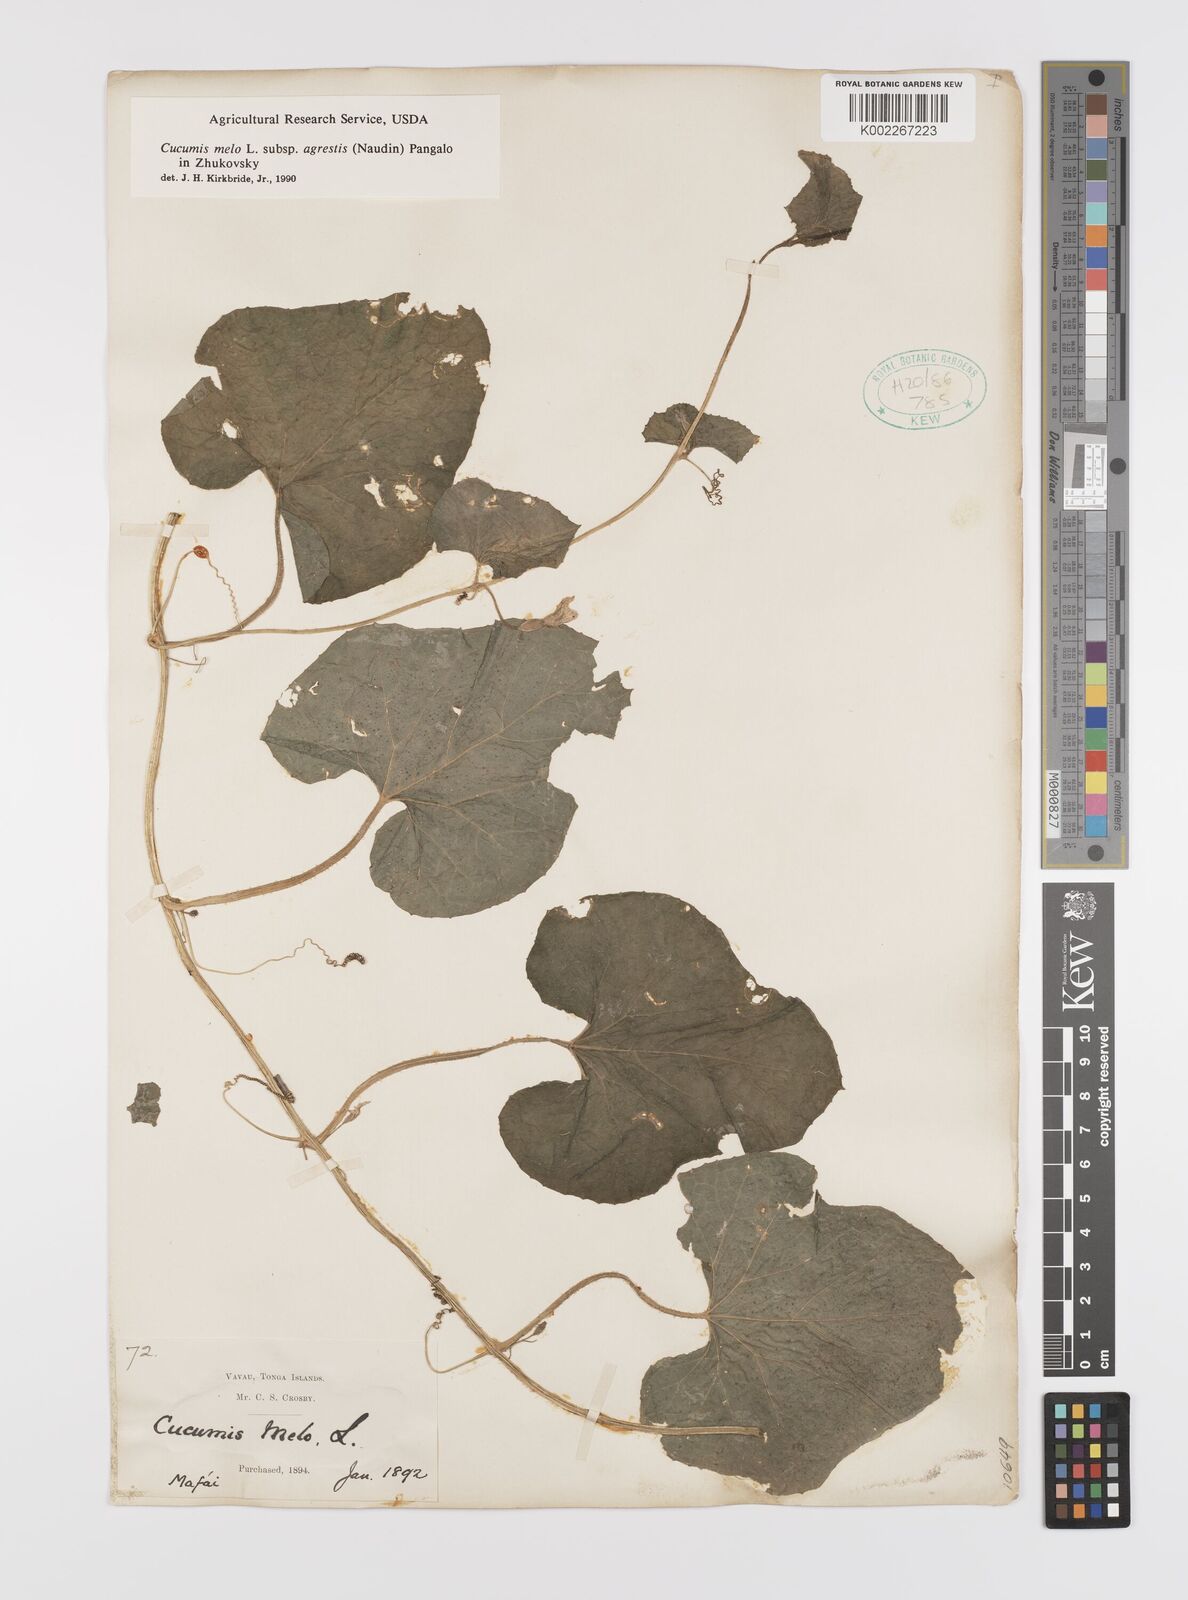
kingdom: Plantae
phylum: Tracheophyta
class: Magnoliopsida
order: Cucurbitales
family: Cucurbitaceae
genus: Cucumis
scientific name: Cucumis melo
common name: Melon
